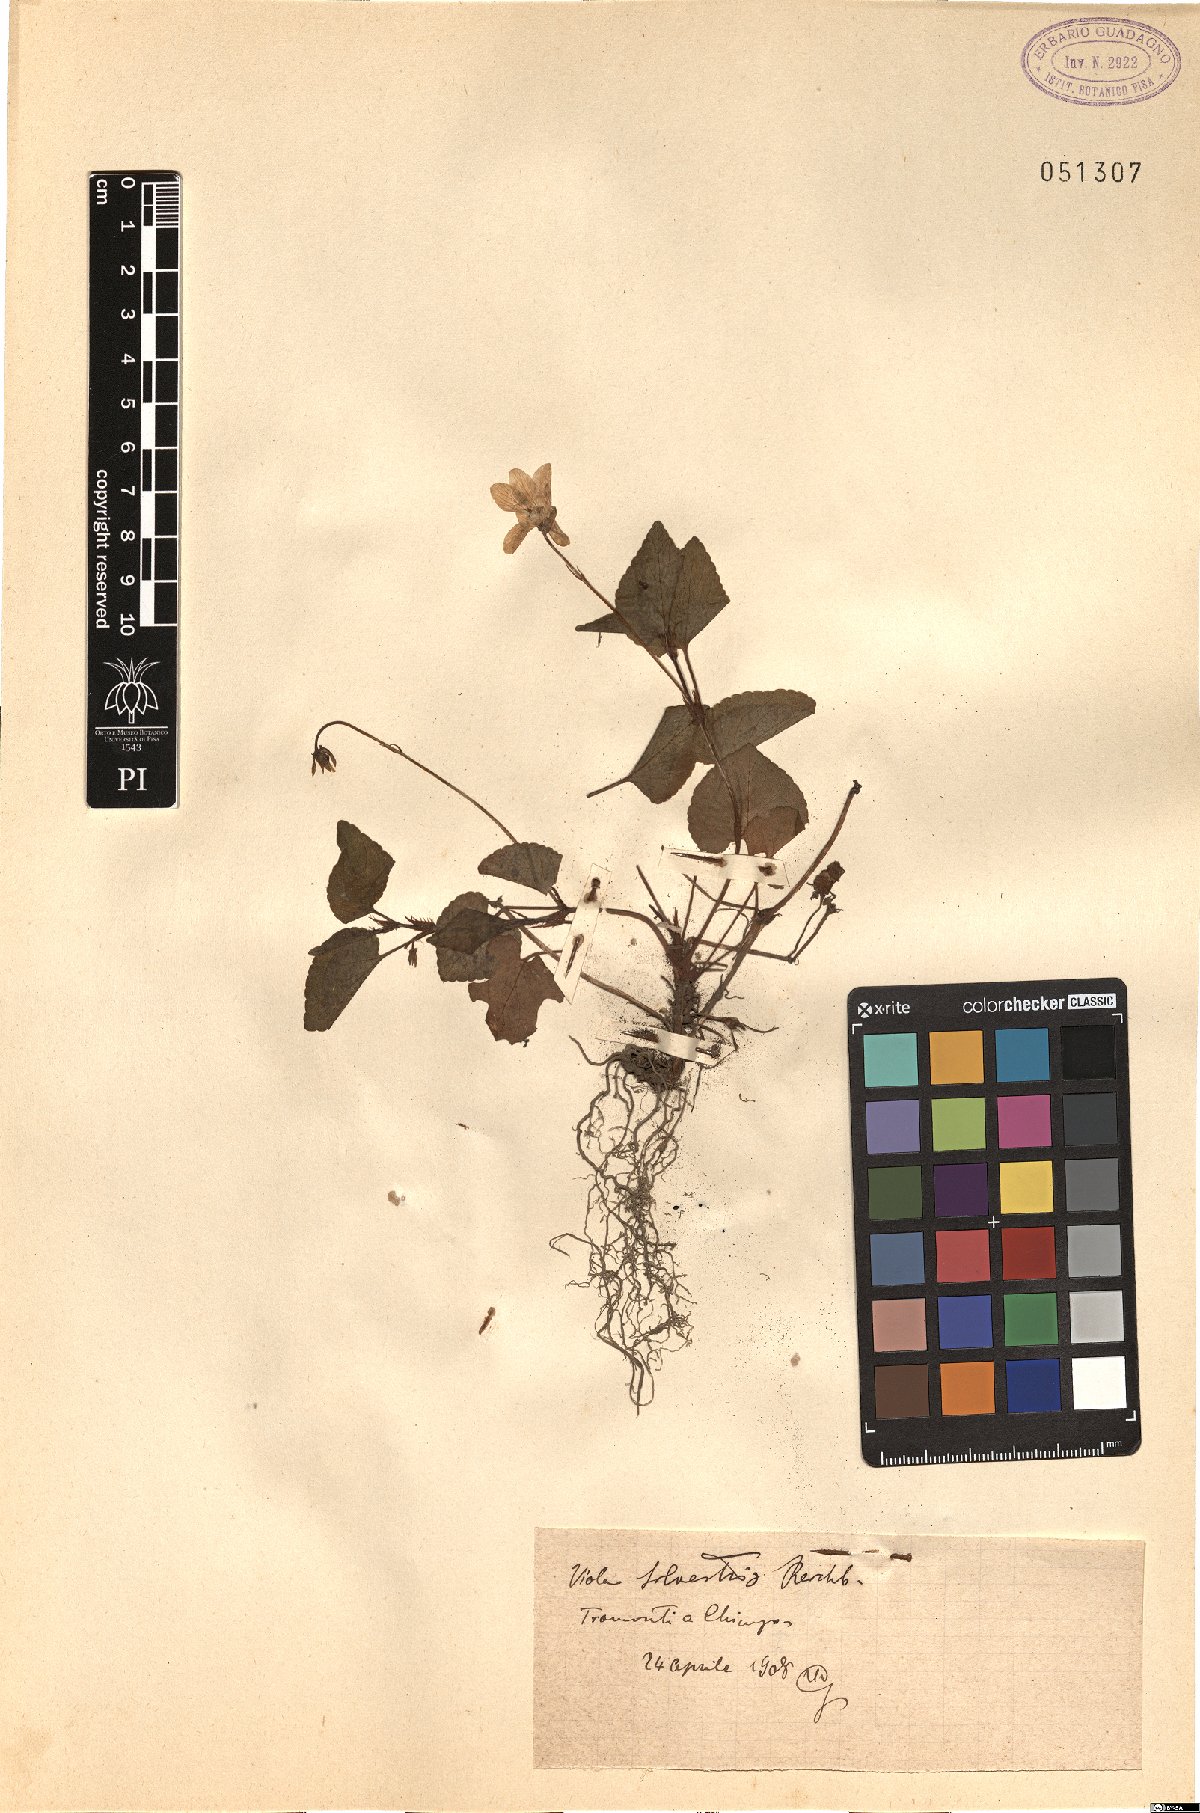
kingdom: Plantae
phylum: Tracheophyta
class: Magnoliopsida
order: Malpighiales
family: Violaceae
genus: Viola
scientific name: Viola canina
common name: Heath dog-violet
